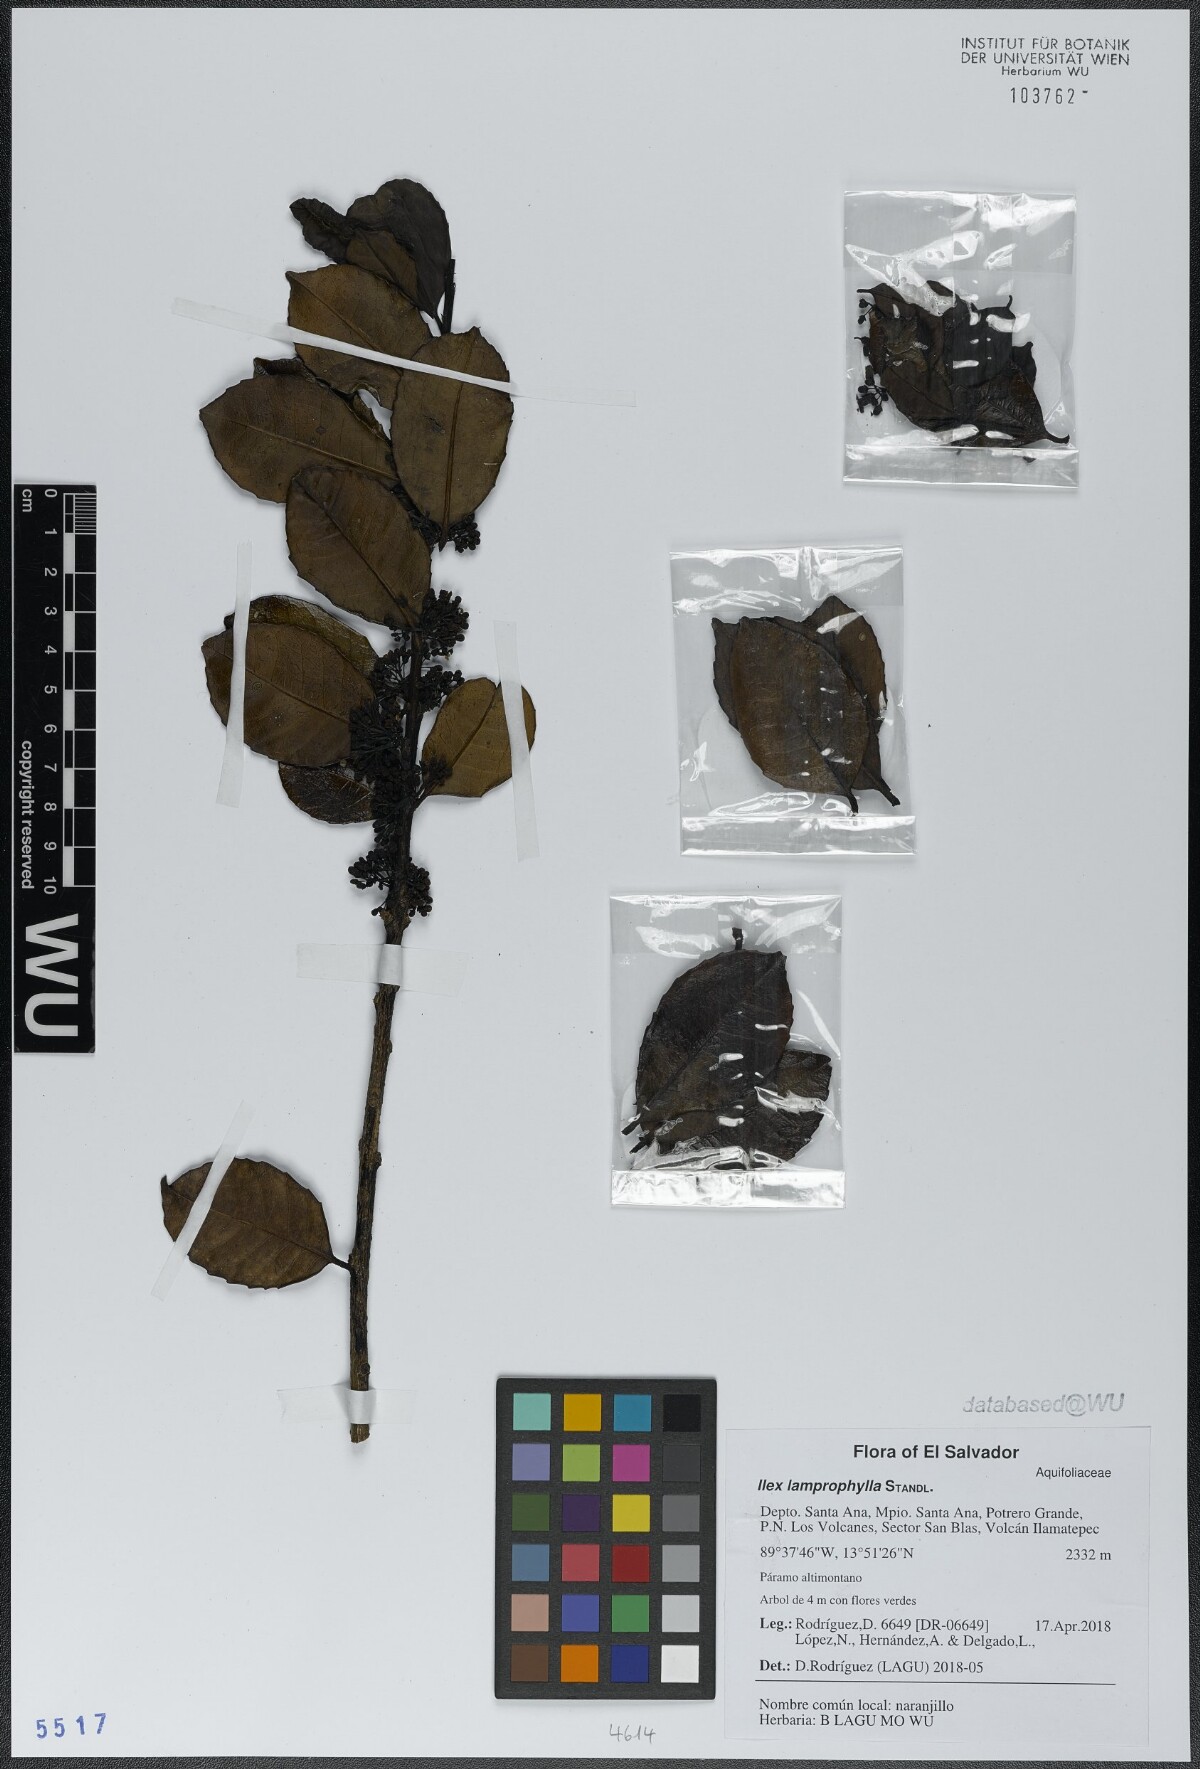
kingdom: Plantae
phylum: Tracheophyta
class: Magnoliopsida
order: Aquifoliales
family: Aquifoliaceae
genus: Ilex
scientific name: Ilex lamprophylla
